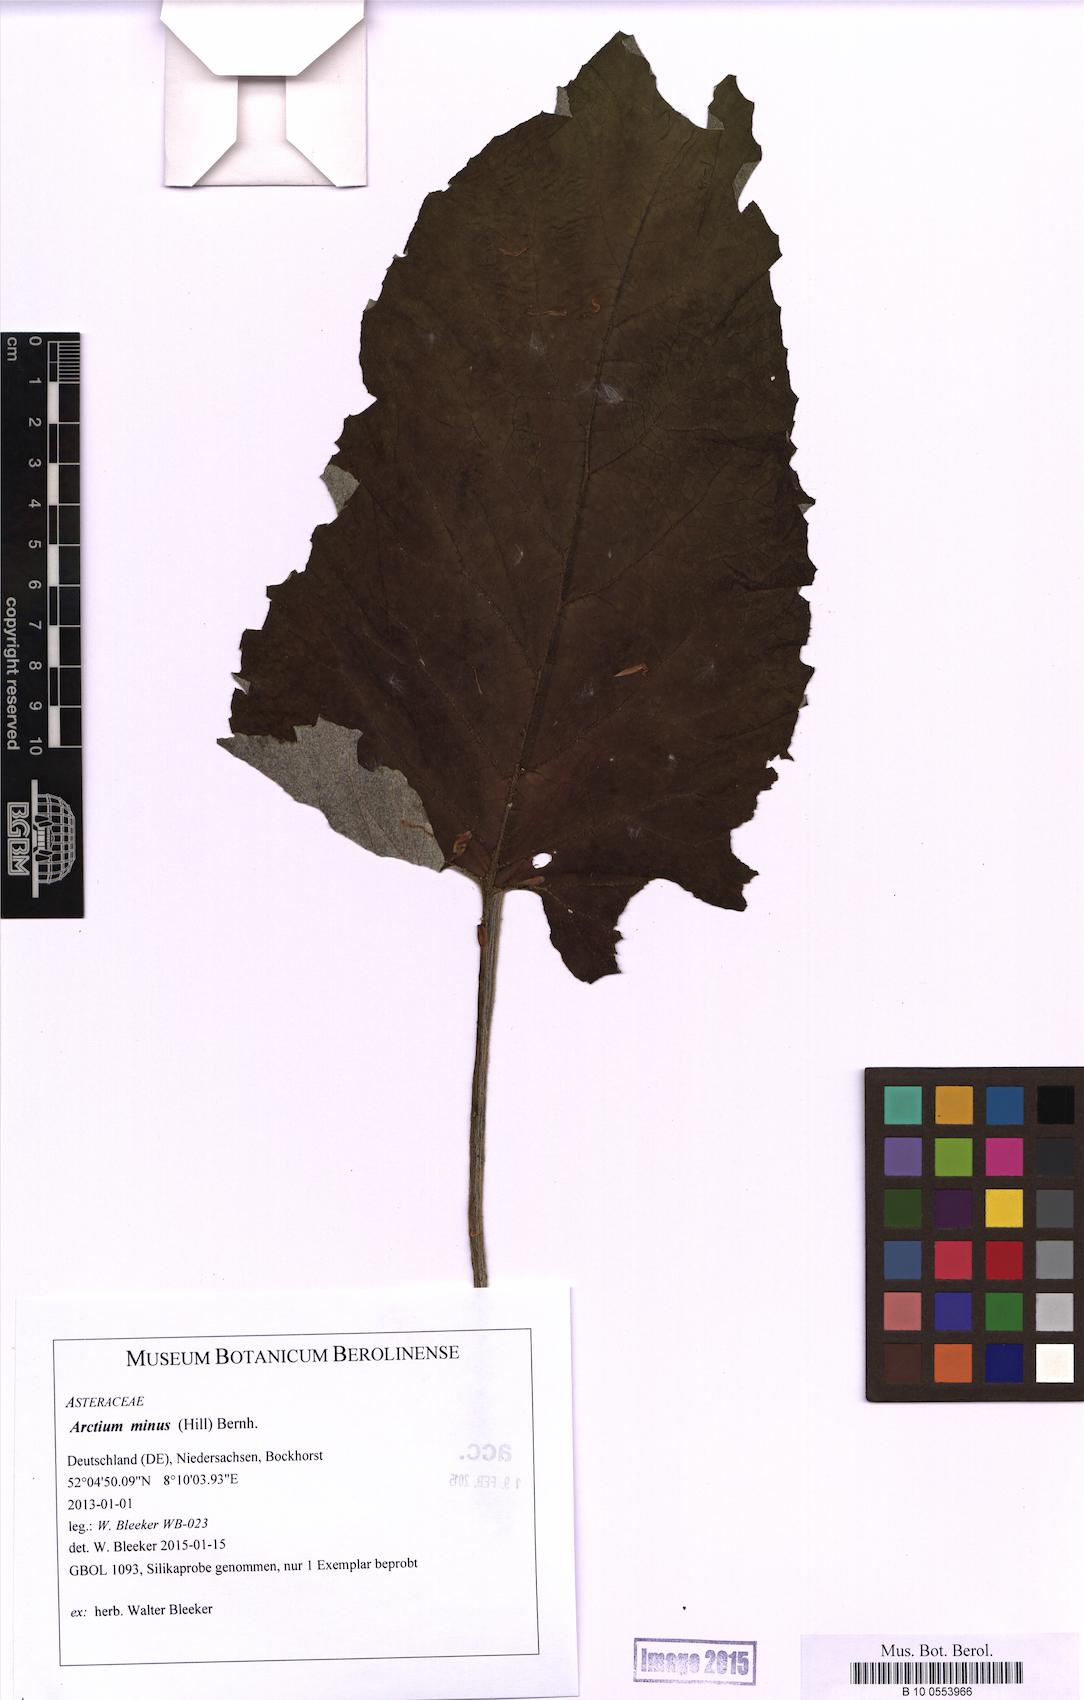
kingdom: Plantae
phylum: Tracheophyta
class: Magnoliopsida
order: Asterales
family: Asteraceae
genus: Arctium
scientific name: Arctium minus
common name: Lesser burdock
